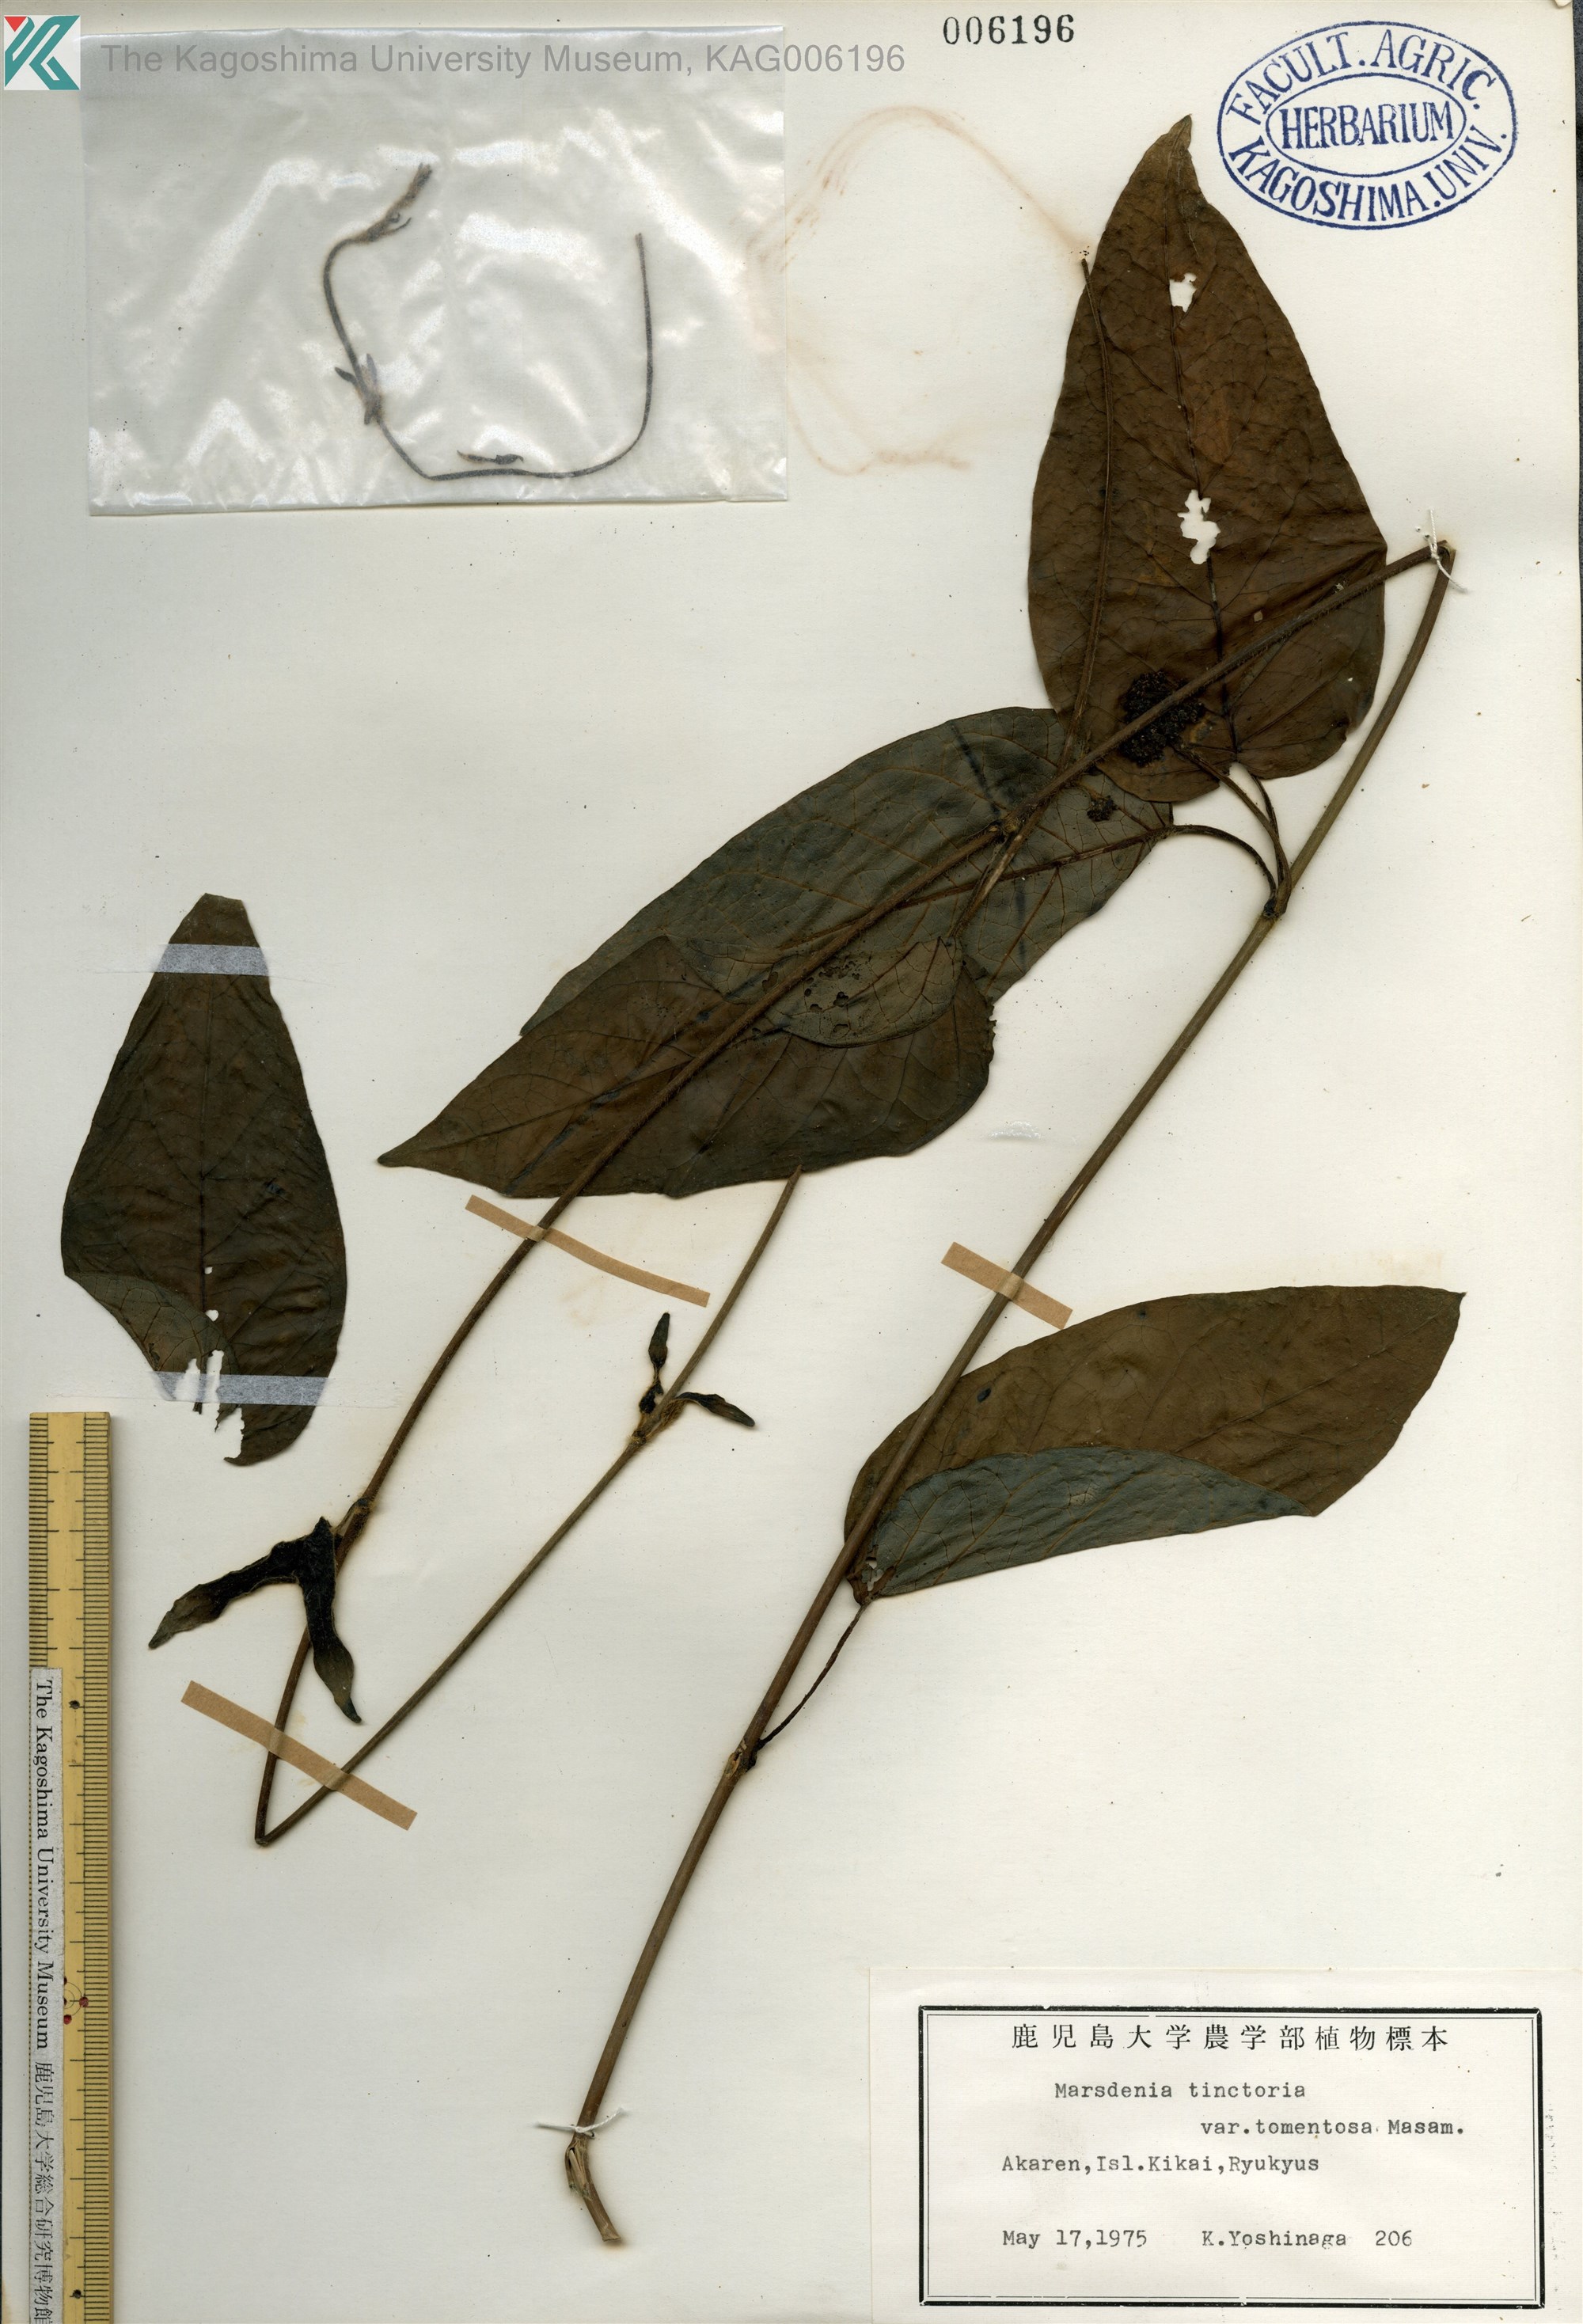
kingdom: Plantae
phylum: Tracheophyta
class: Magnoliopsida
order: Gentianales
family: Apocynaceae
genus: Marsdenia
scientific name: Marsdenia tinctoria
